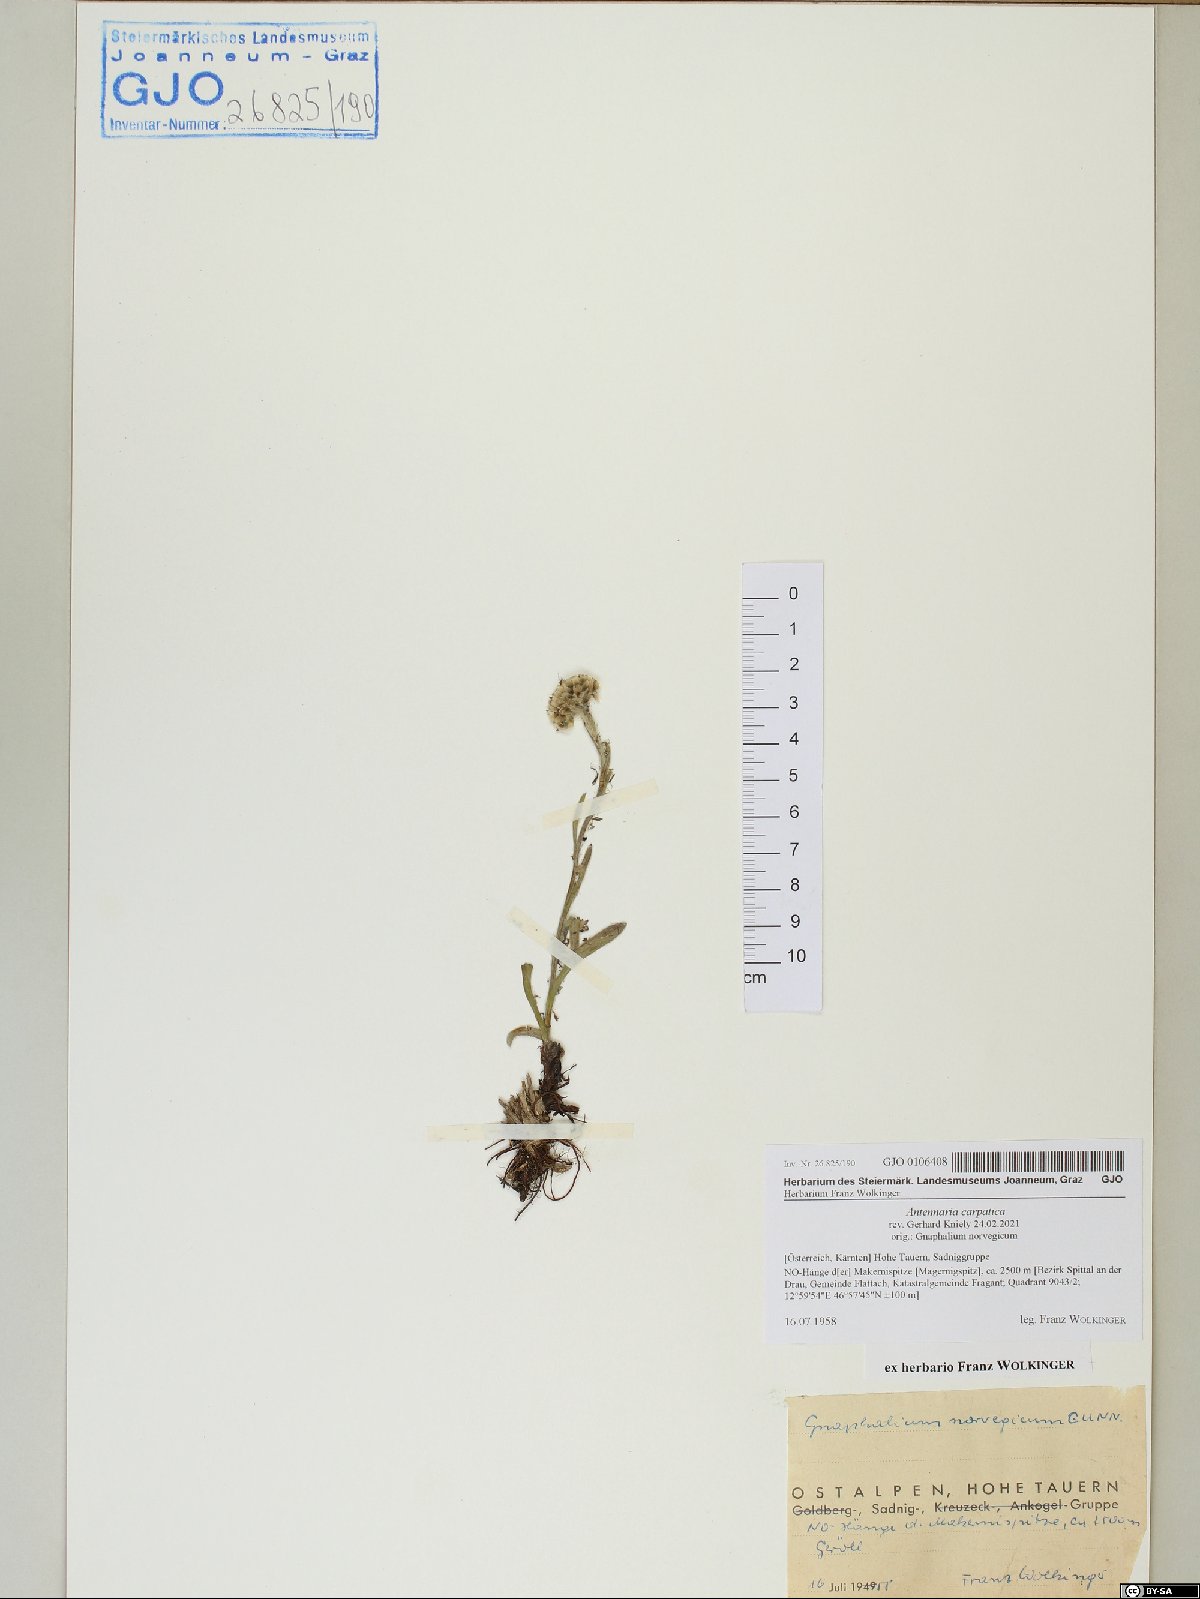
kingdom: Plantae
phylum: Tracheophyta
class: Magnoliopsida
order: Asterales
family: Asteraceae
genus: Antennaria
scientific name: Antennaria carpatica
